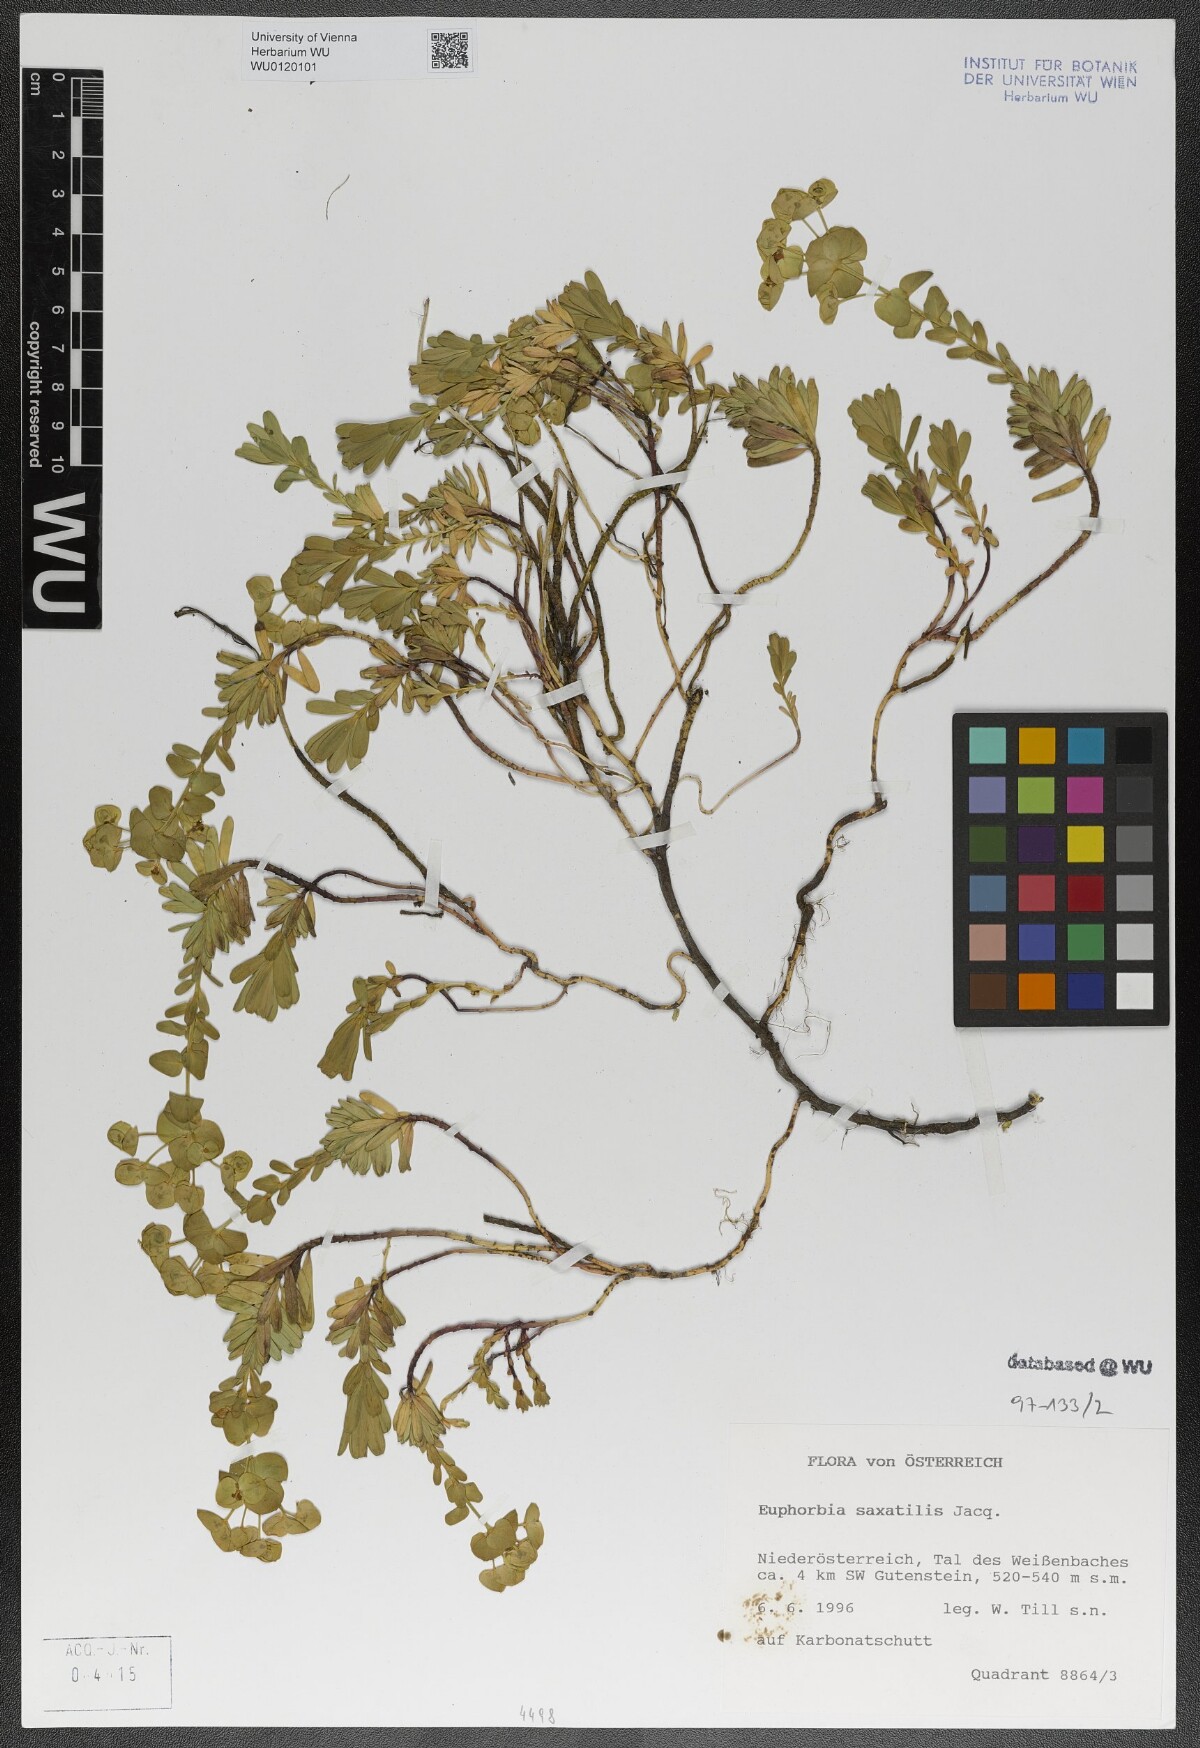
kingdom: Plantae
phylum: Tracheophyta
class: Magnoliopsida
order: Malpighiales
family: Euphorbiaceae
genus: Euphorbia
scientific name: Euphorbia saxatilis
